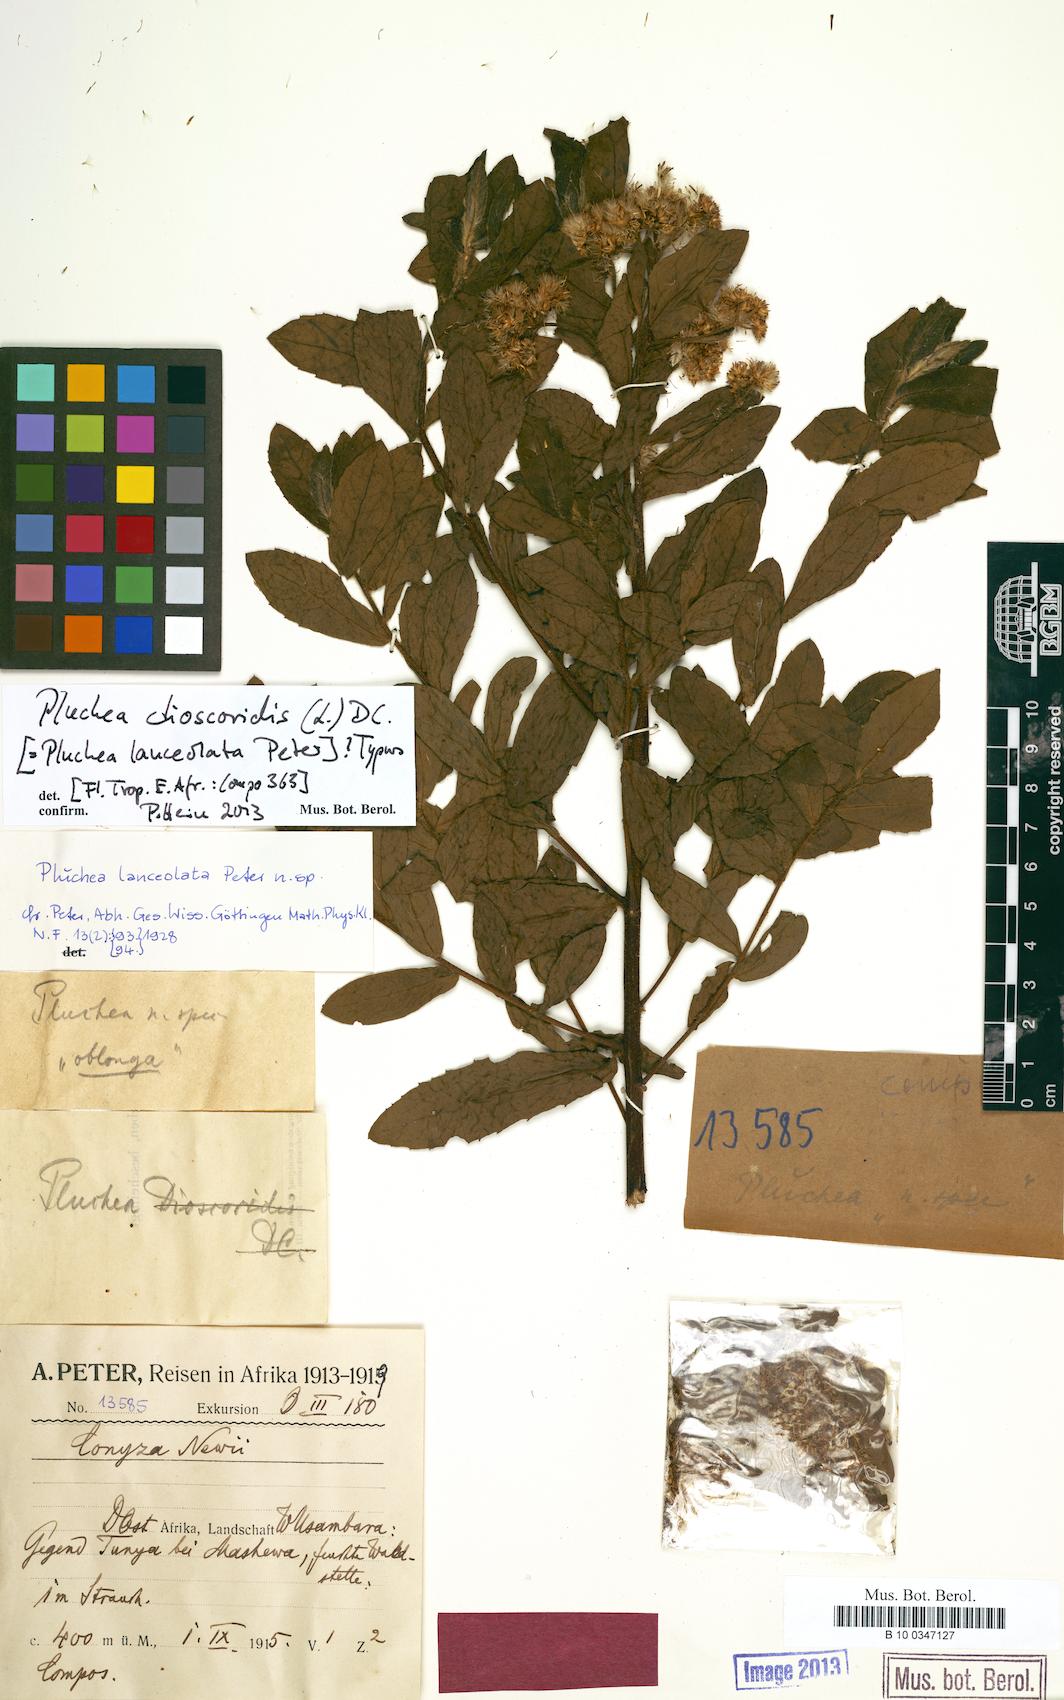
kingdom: Plantae
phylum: Tracheophyta
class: Magnoliopsida
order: Asterales
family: Asteraceae
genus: Pluchea
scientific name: Pluchea dioscoridis
